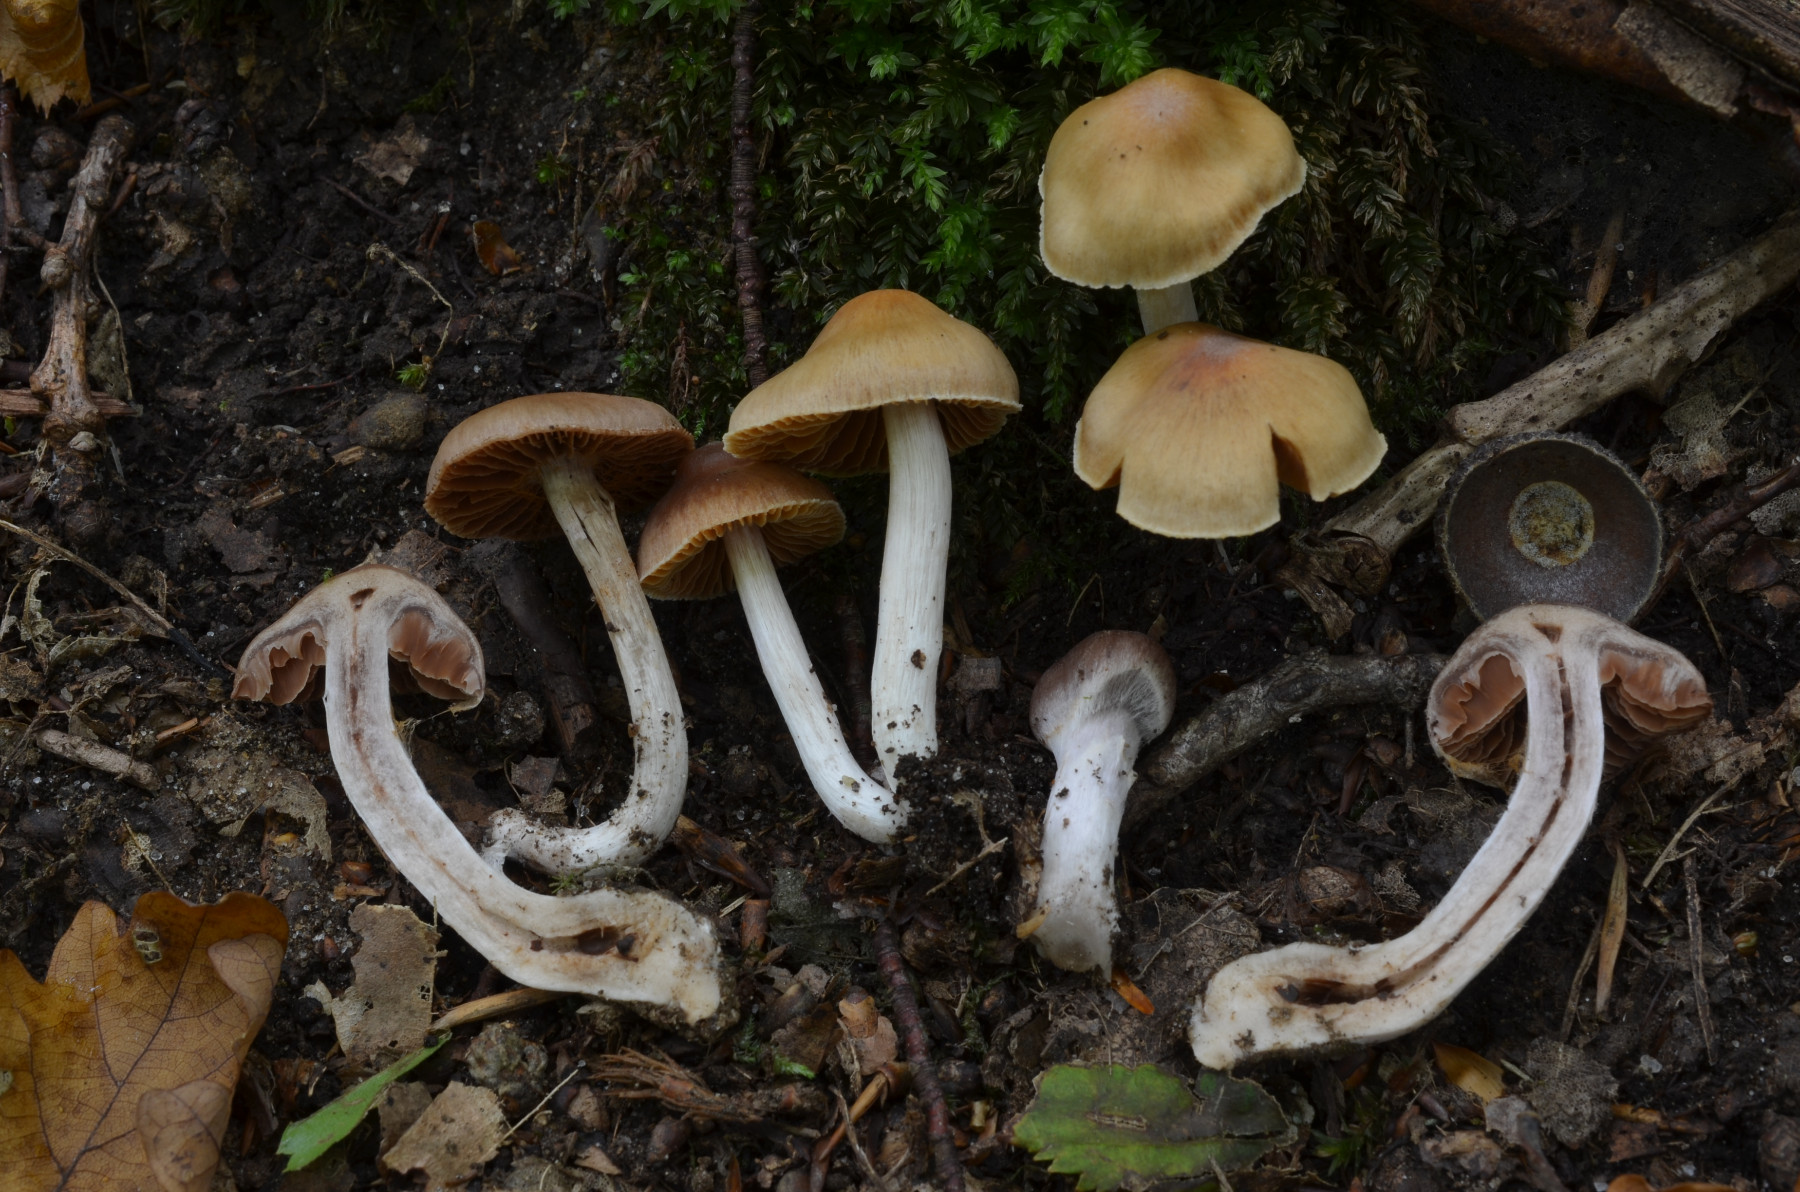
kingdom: Fungi
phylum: Basidiomycota
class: Agaricomycetes
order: Agaricales
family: Cortinariaceae
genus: Cortinarius
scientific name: Cortinarius obtusus
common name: Blunt webcap
